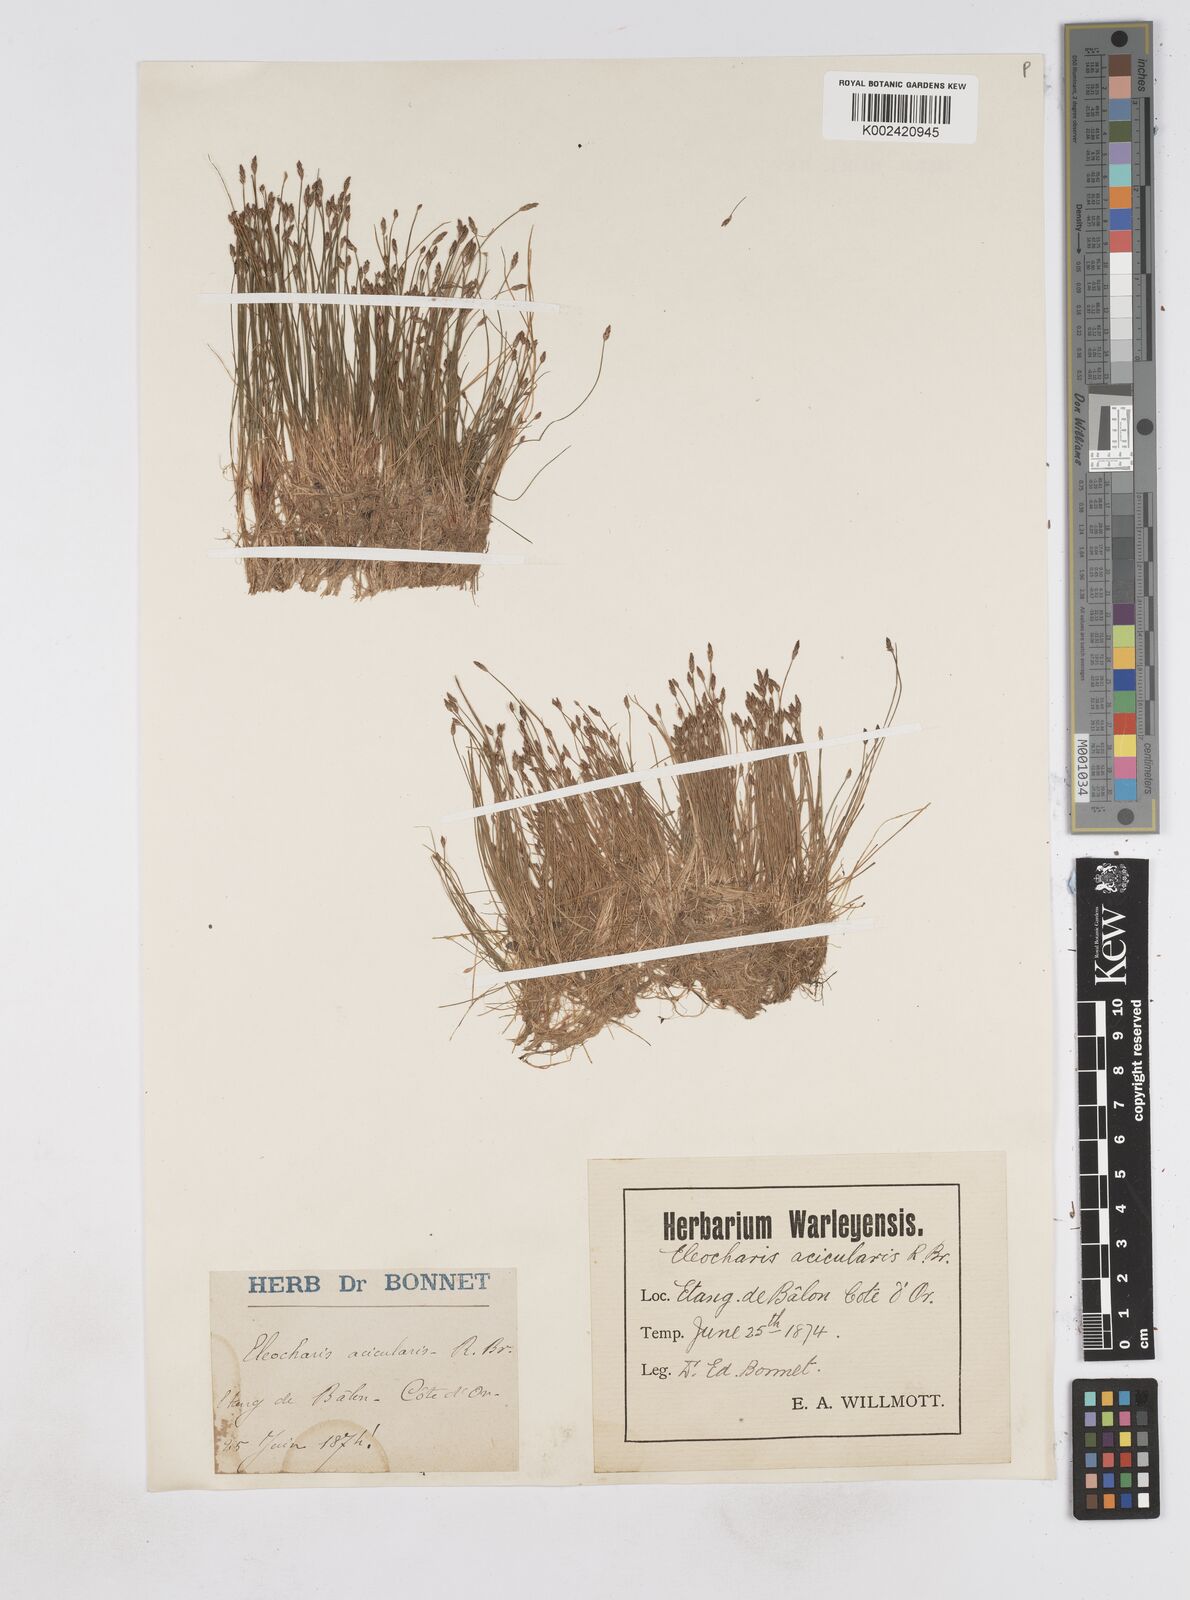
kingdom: Plantae
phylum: Tracheophyta
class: Liliopsida
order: Poales
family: Cyperaceae
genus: Eleocharis
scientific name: Eleocharis acicularis
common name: Needle spike-rush
